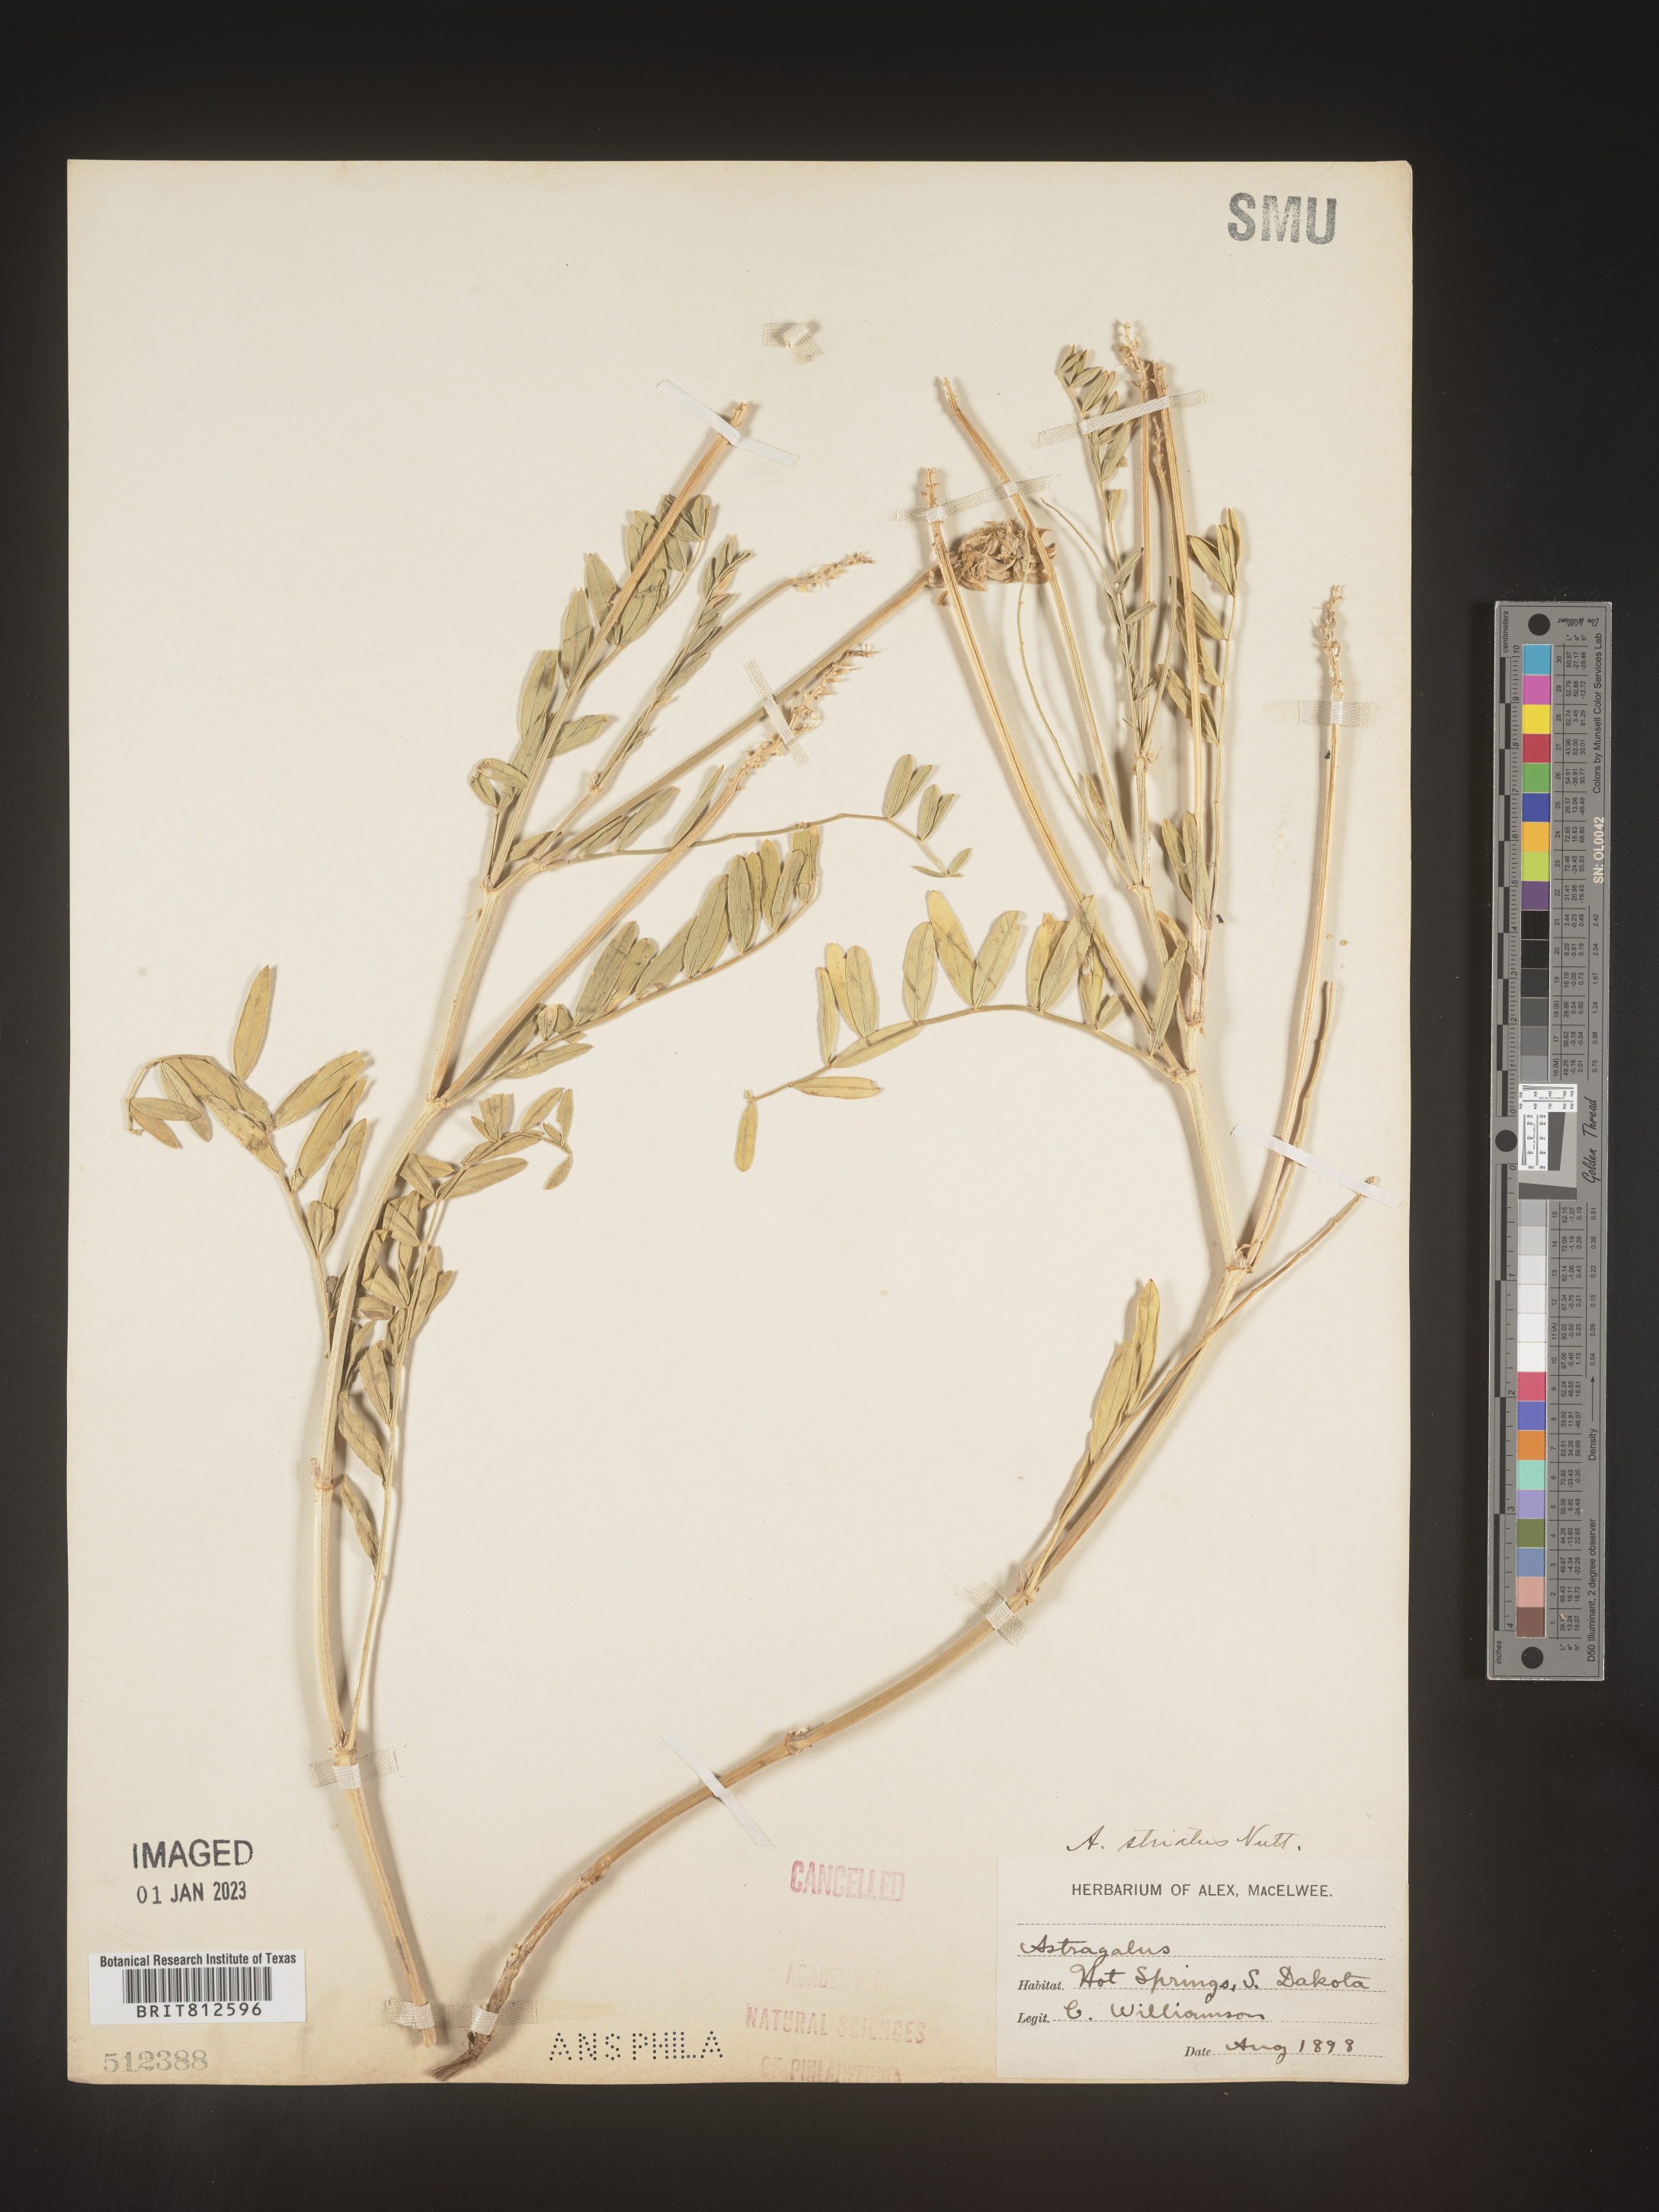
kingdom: Plantae
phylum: Tracheophyta
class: Magnoliopsida
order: Fabales
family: Fabaceae
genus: Astragalus
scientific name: Astragalus laxmannii
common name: Laxmann's milk-vetch
